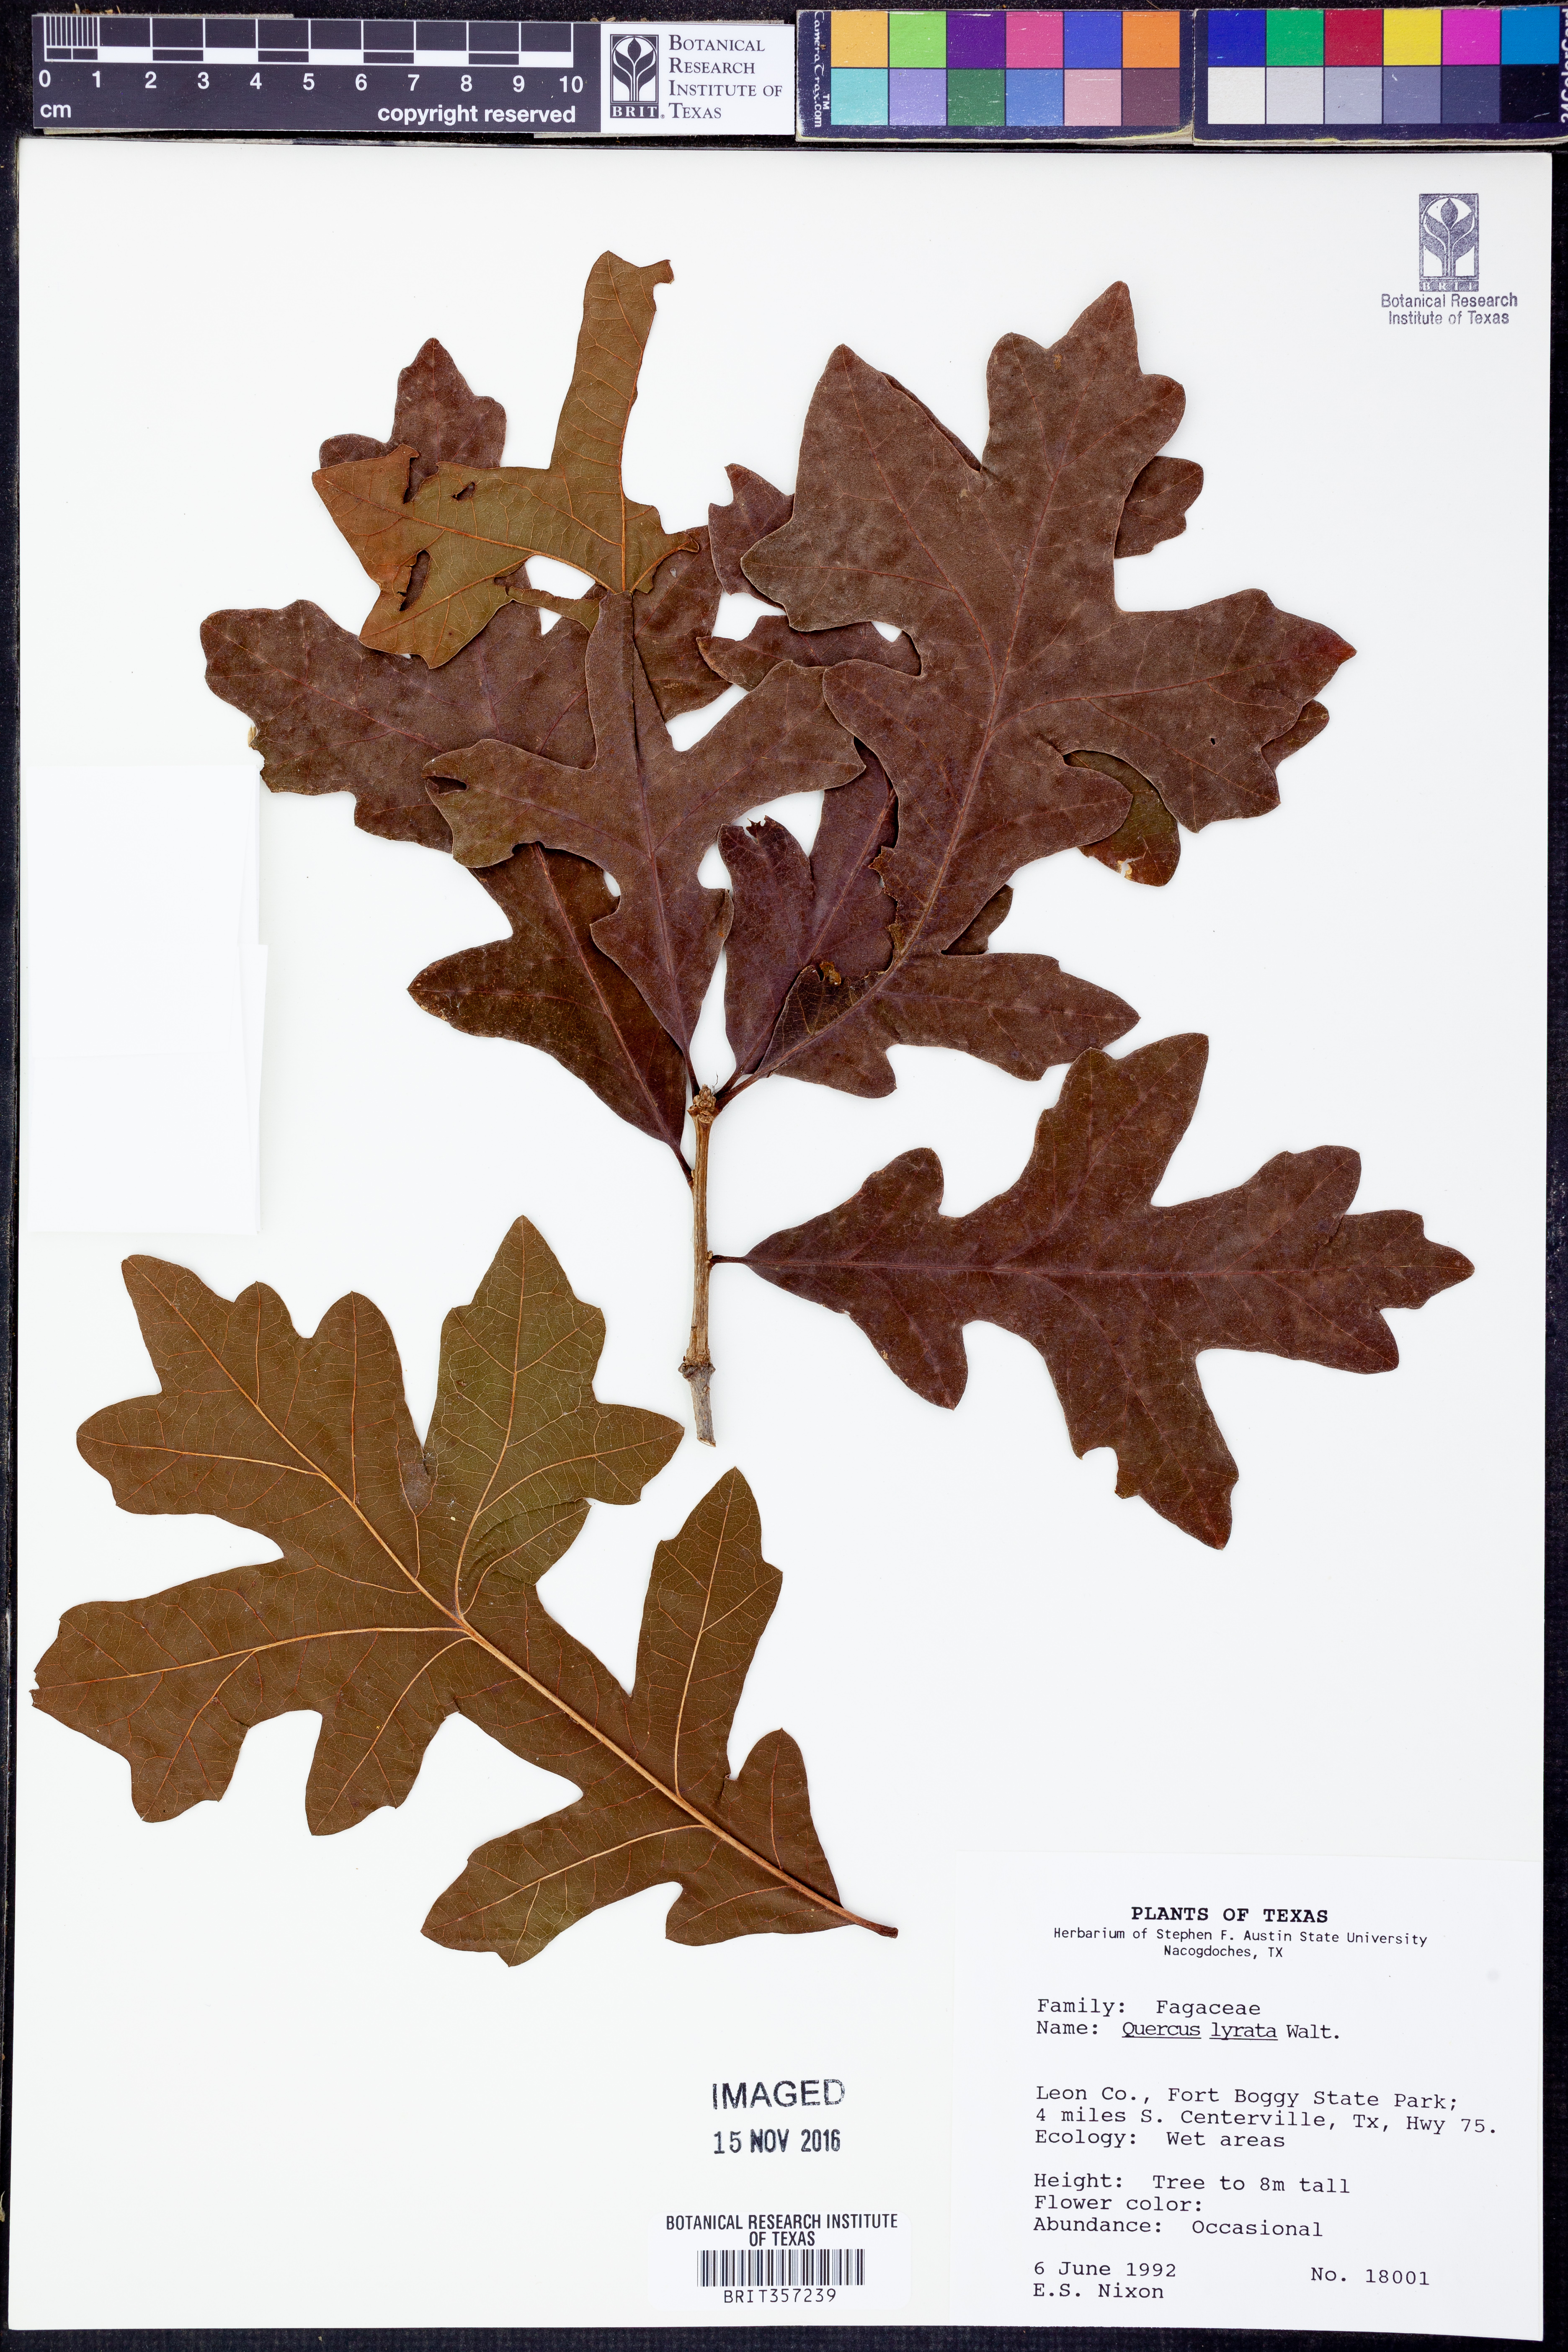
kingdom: Plantae
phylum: Tracheophyta
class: Magnoliopsida
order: Fagales
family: Fagaceae
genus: Quercus
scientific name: Quercus lyrata
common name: Overcup oak
